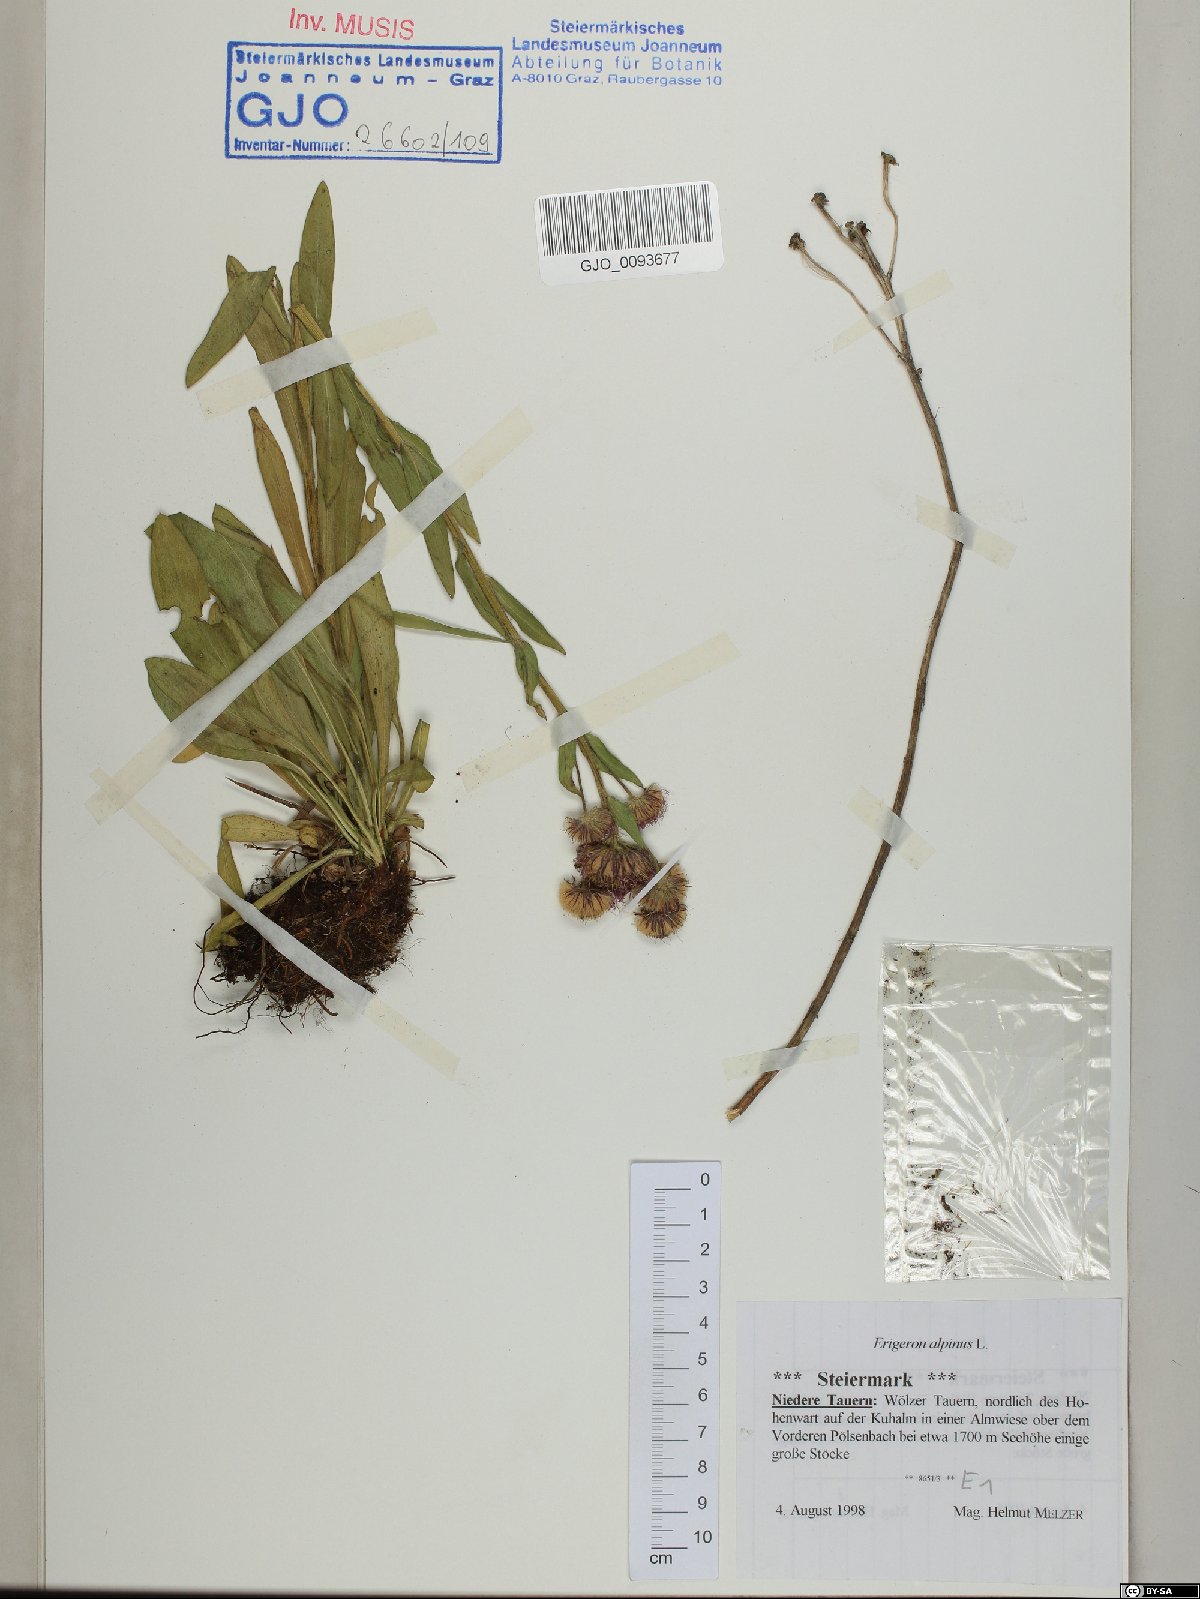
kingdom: Plantae
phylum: Tracheophyta
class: Magnoliopsida
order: Asterales
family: Asteraceae
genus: Erigeron
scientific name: Erigeron alpinus
